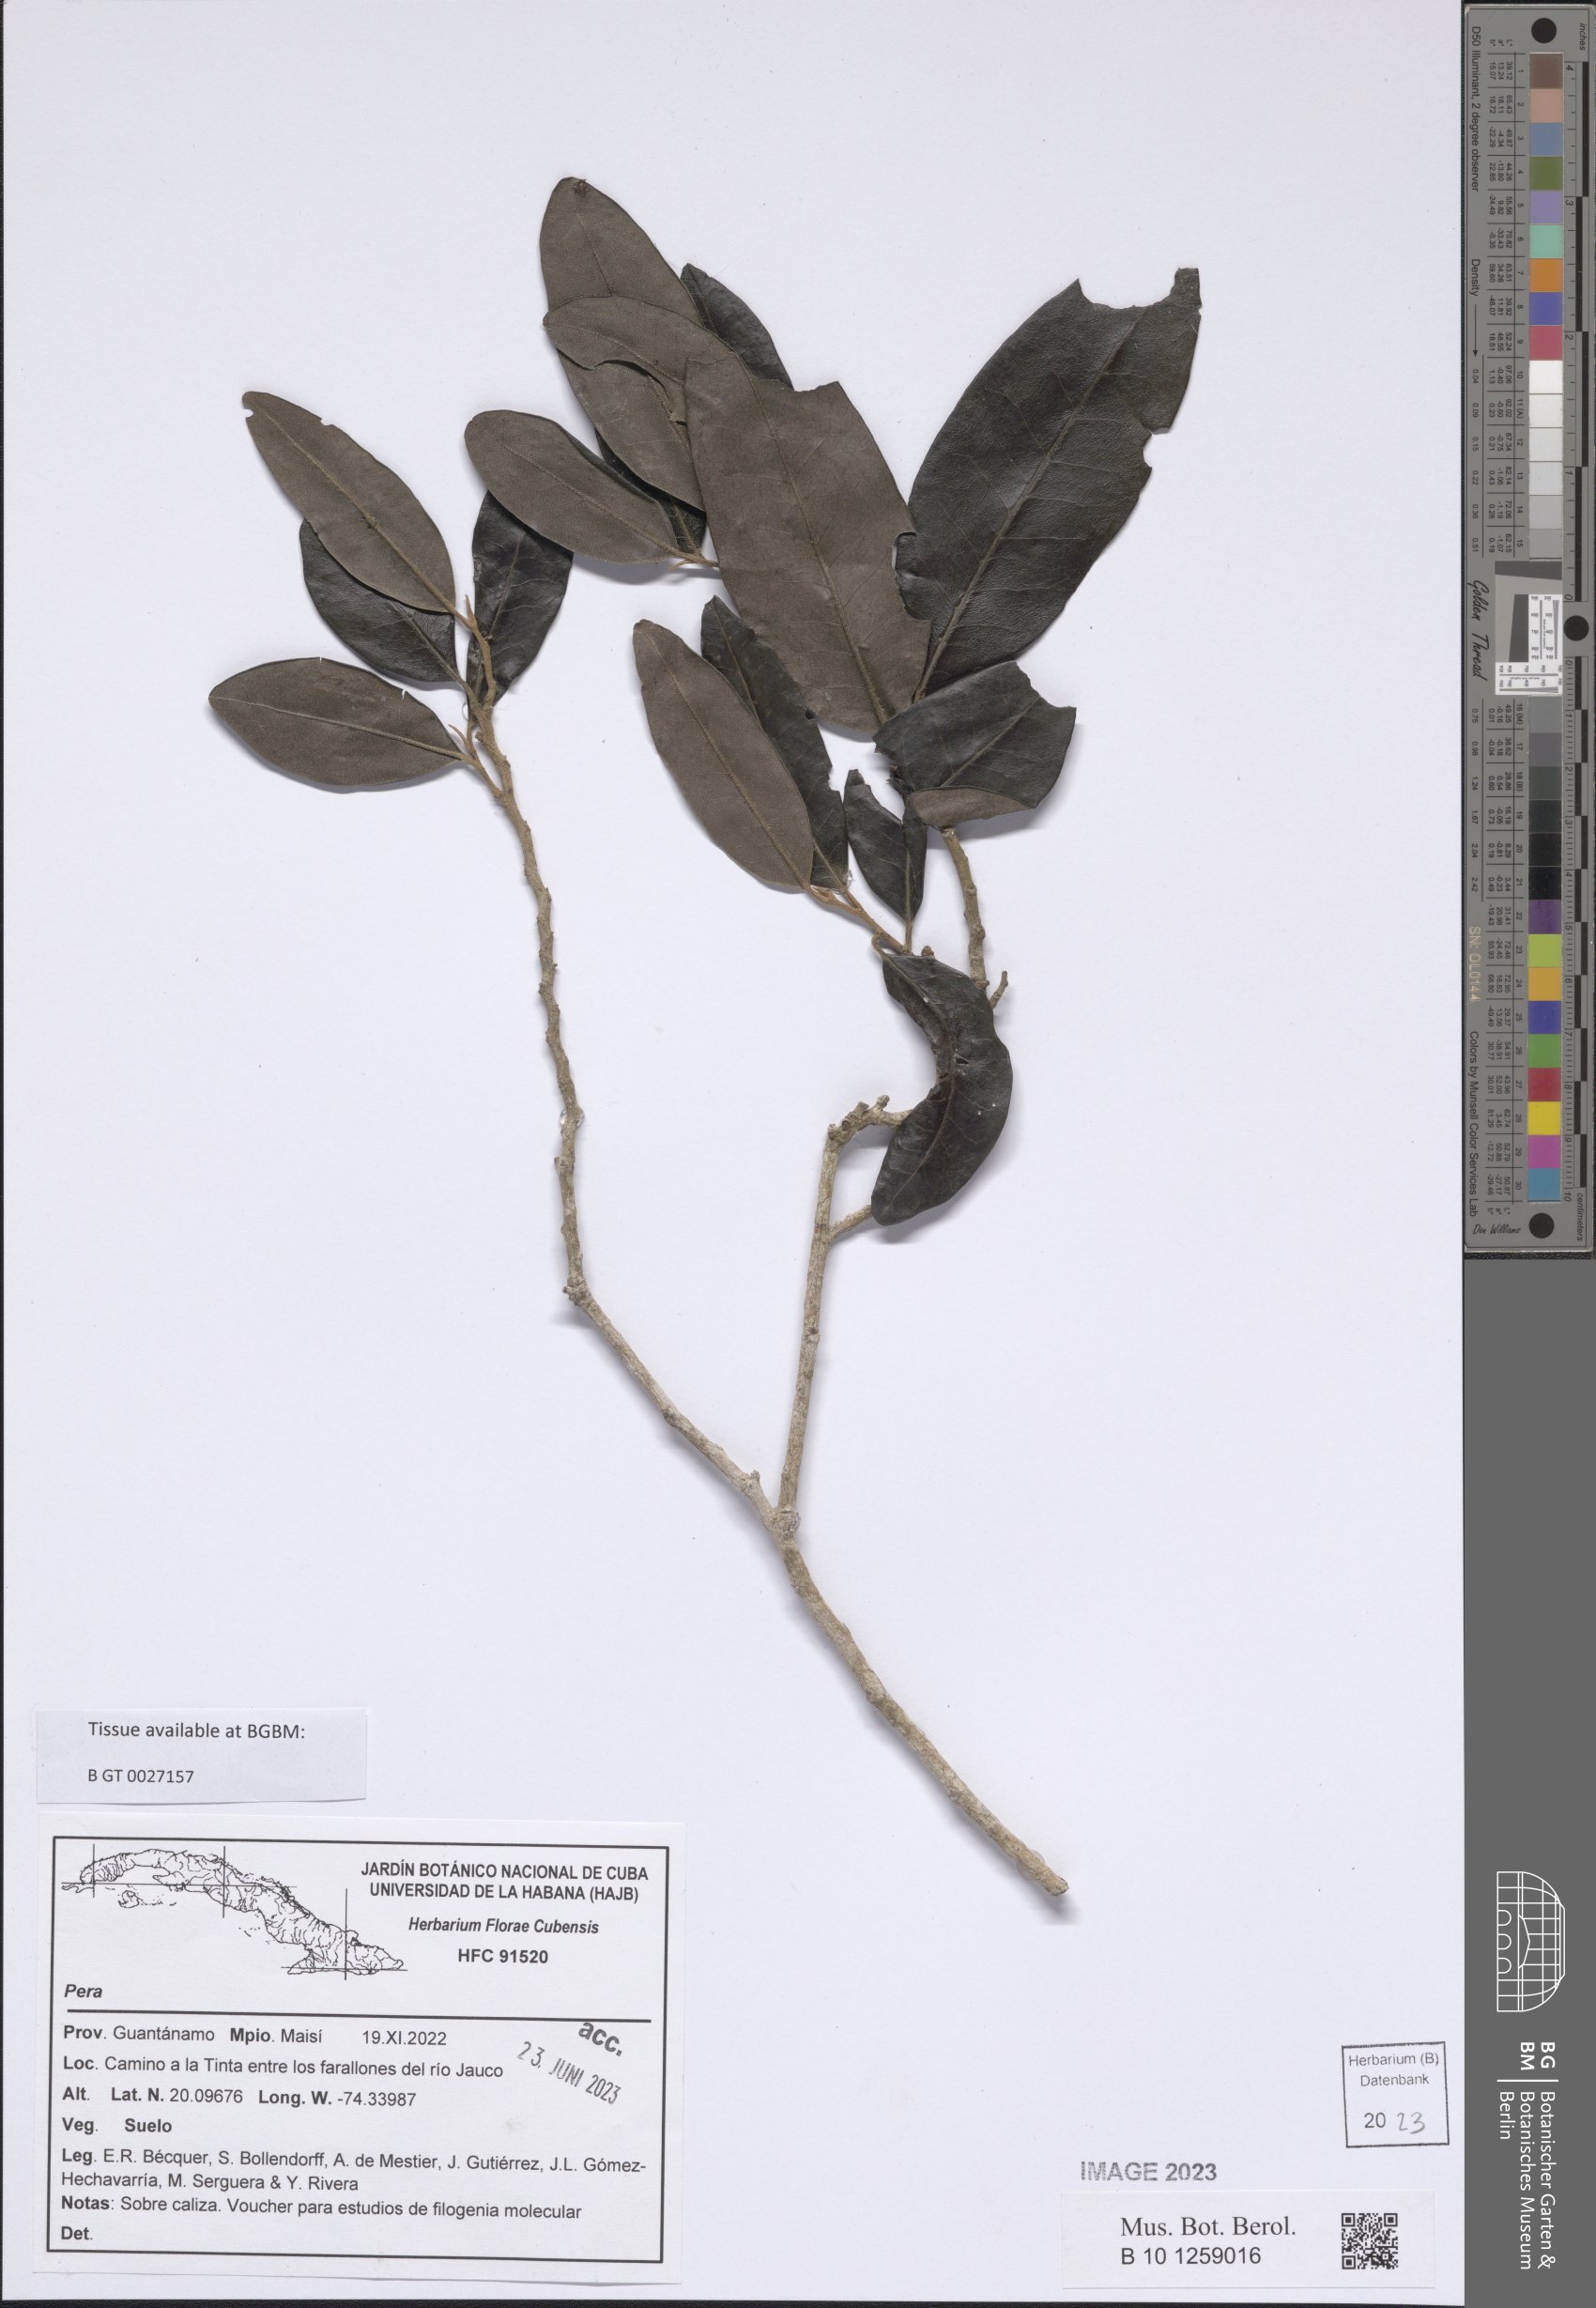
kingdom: Plantae
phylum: Tracheophyta
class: Magnoliopsida
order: Malpighiales
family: Peraceae
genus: Pera
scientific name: Pera
